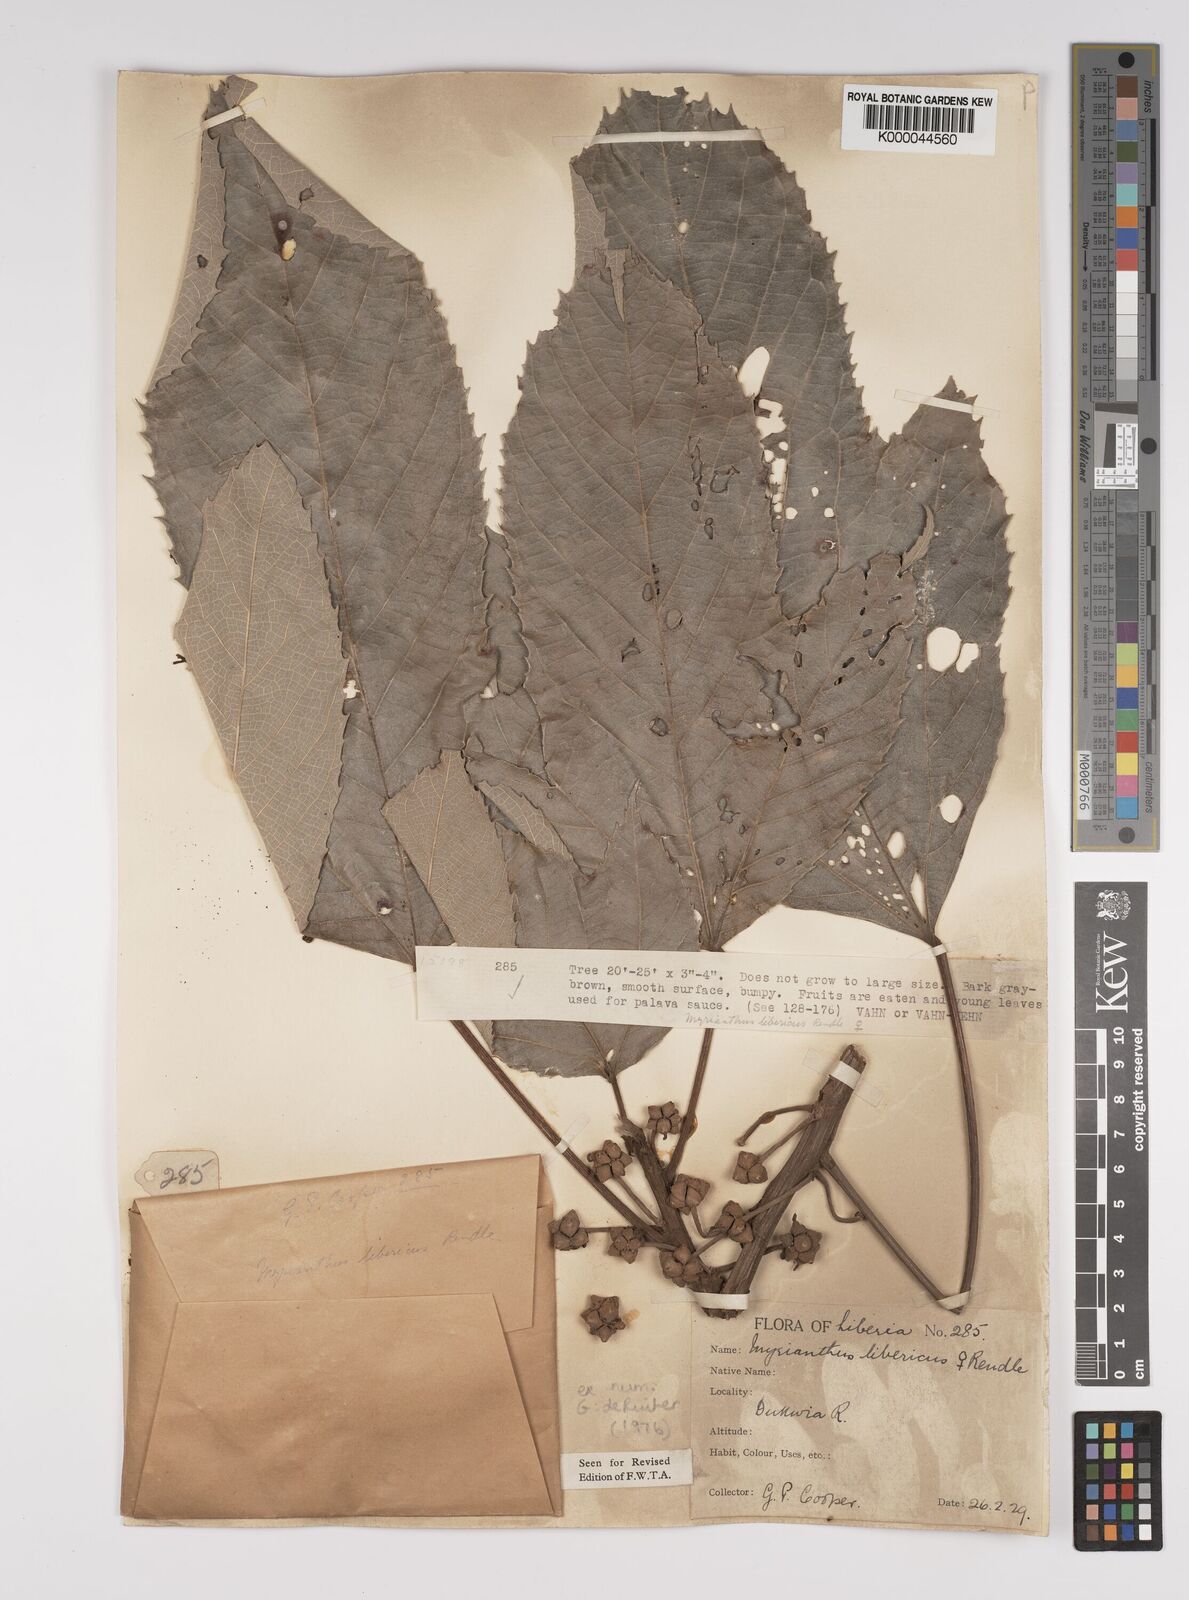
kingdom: Plantae
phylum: Tracheophyta
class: Magnoliopsida
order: Rosales
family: Urticaceae
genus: Myrianthus
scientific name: Myrianthus libericus
